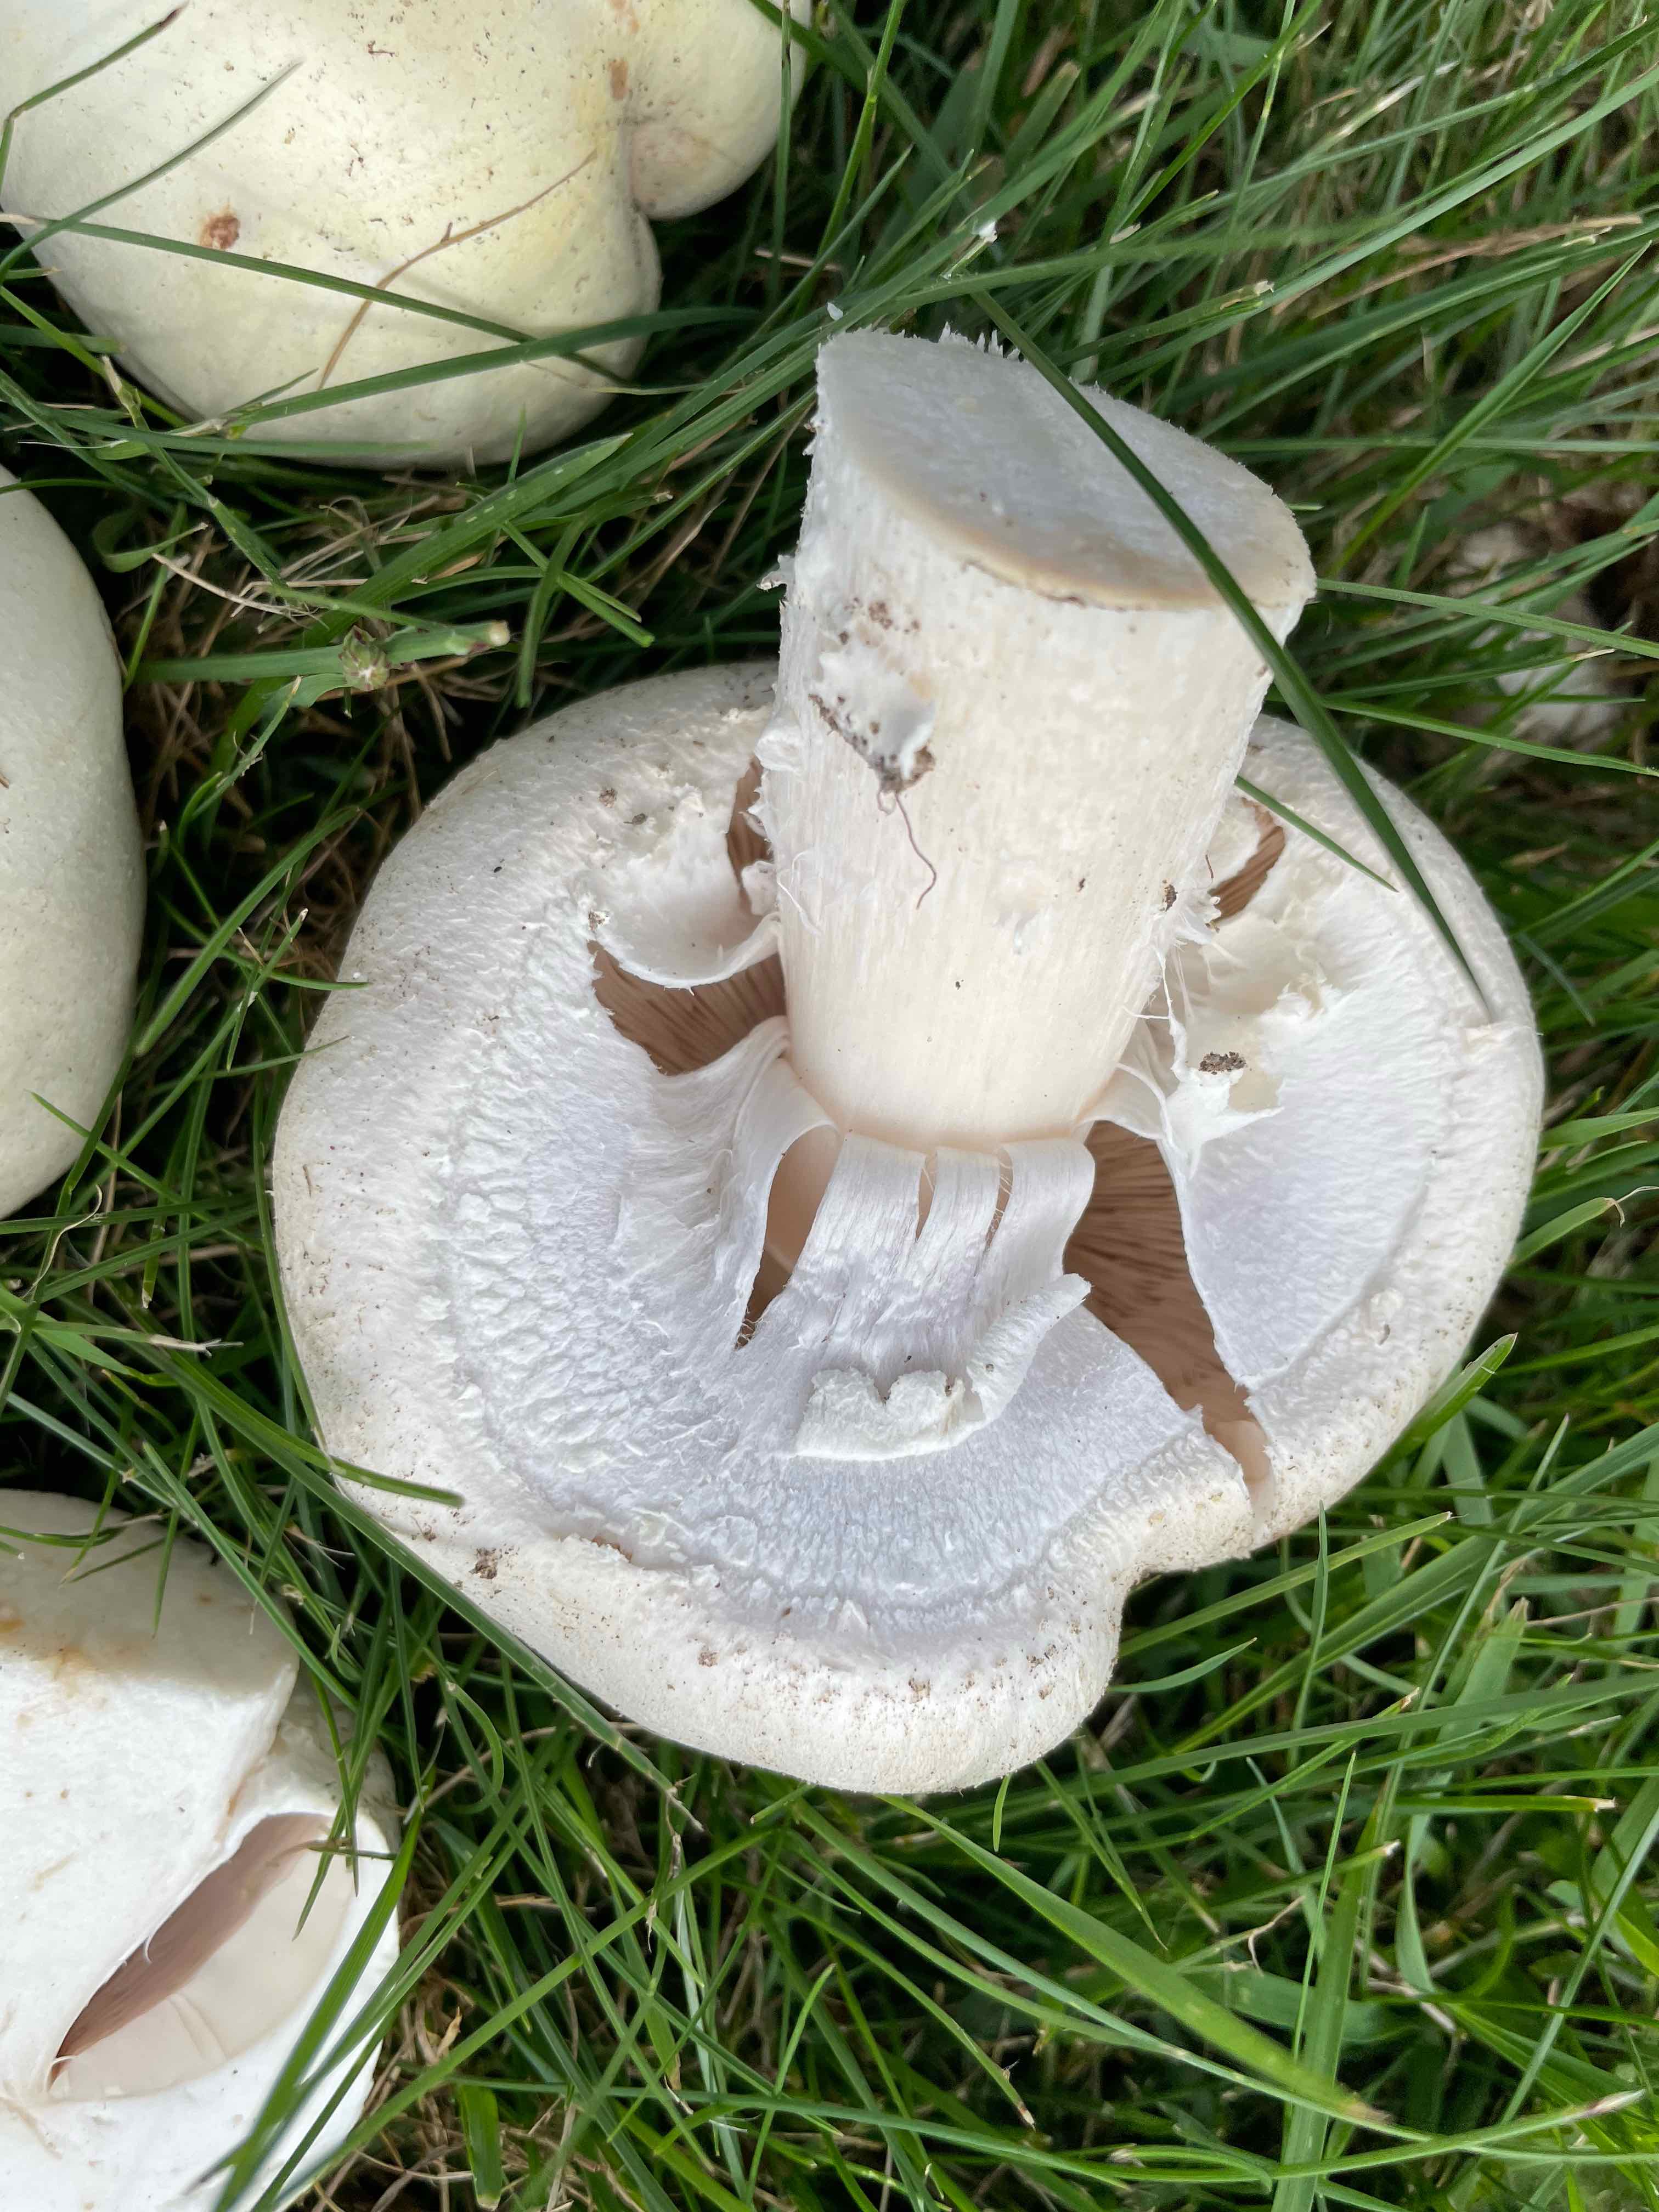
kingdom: Fungi
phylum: Basidiomycota
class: Agaricomycetes
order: Agaricales
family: Agaricaceae
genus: Agaricus
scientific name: Agaricus arvensis
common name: ager-champignon
